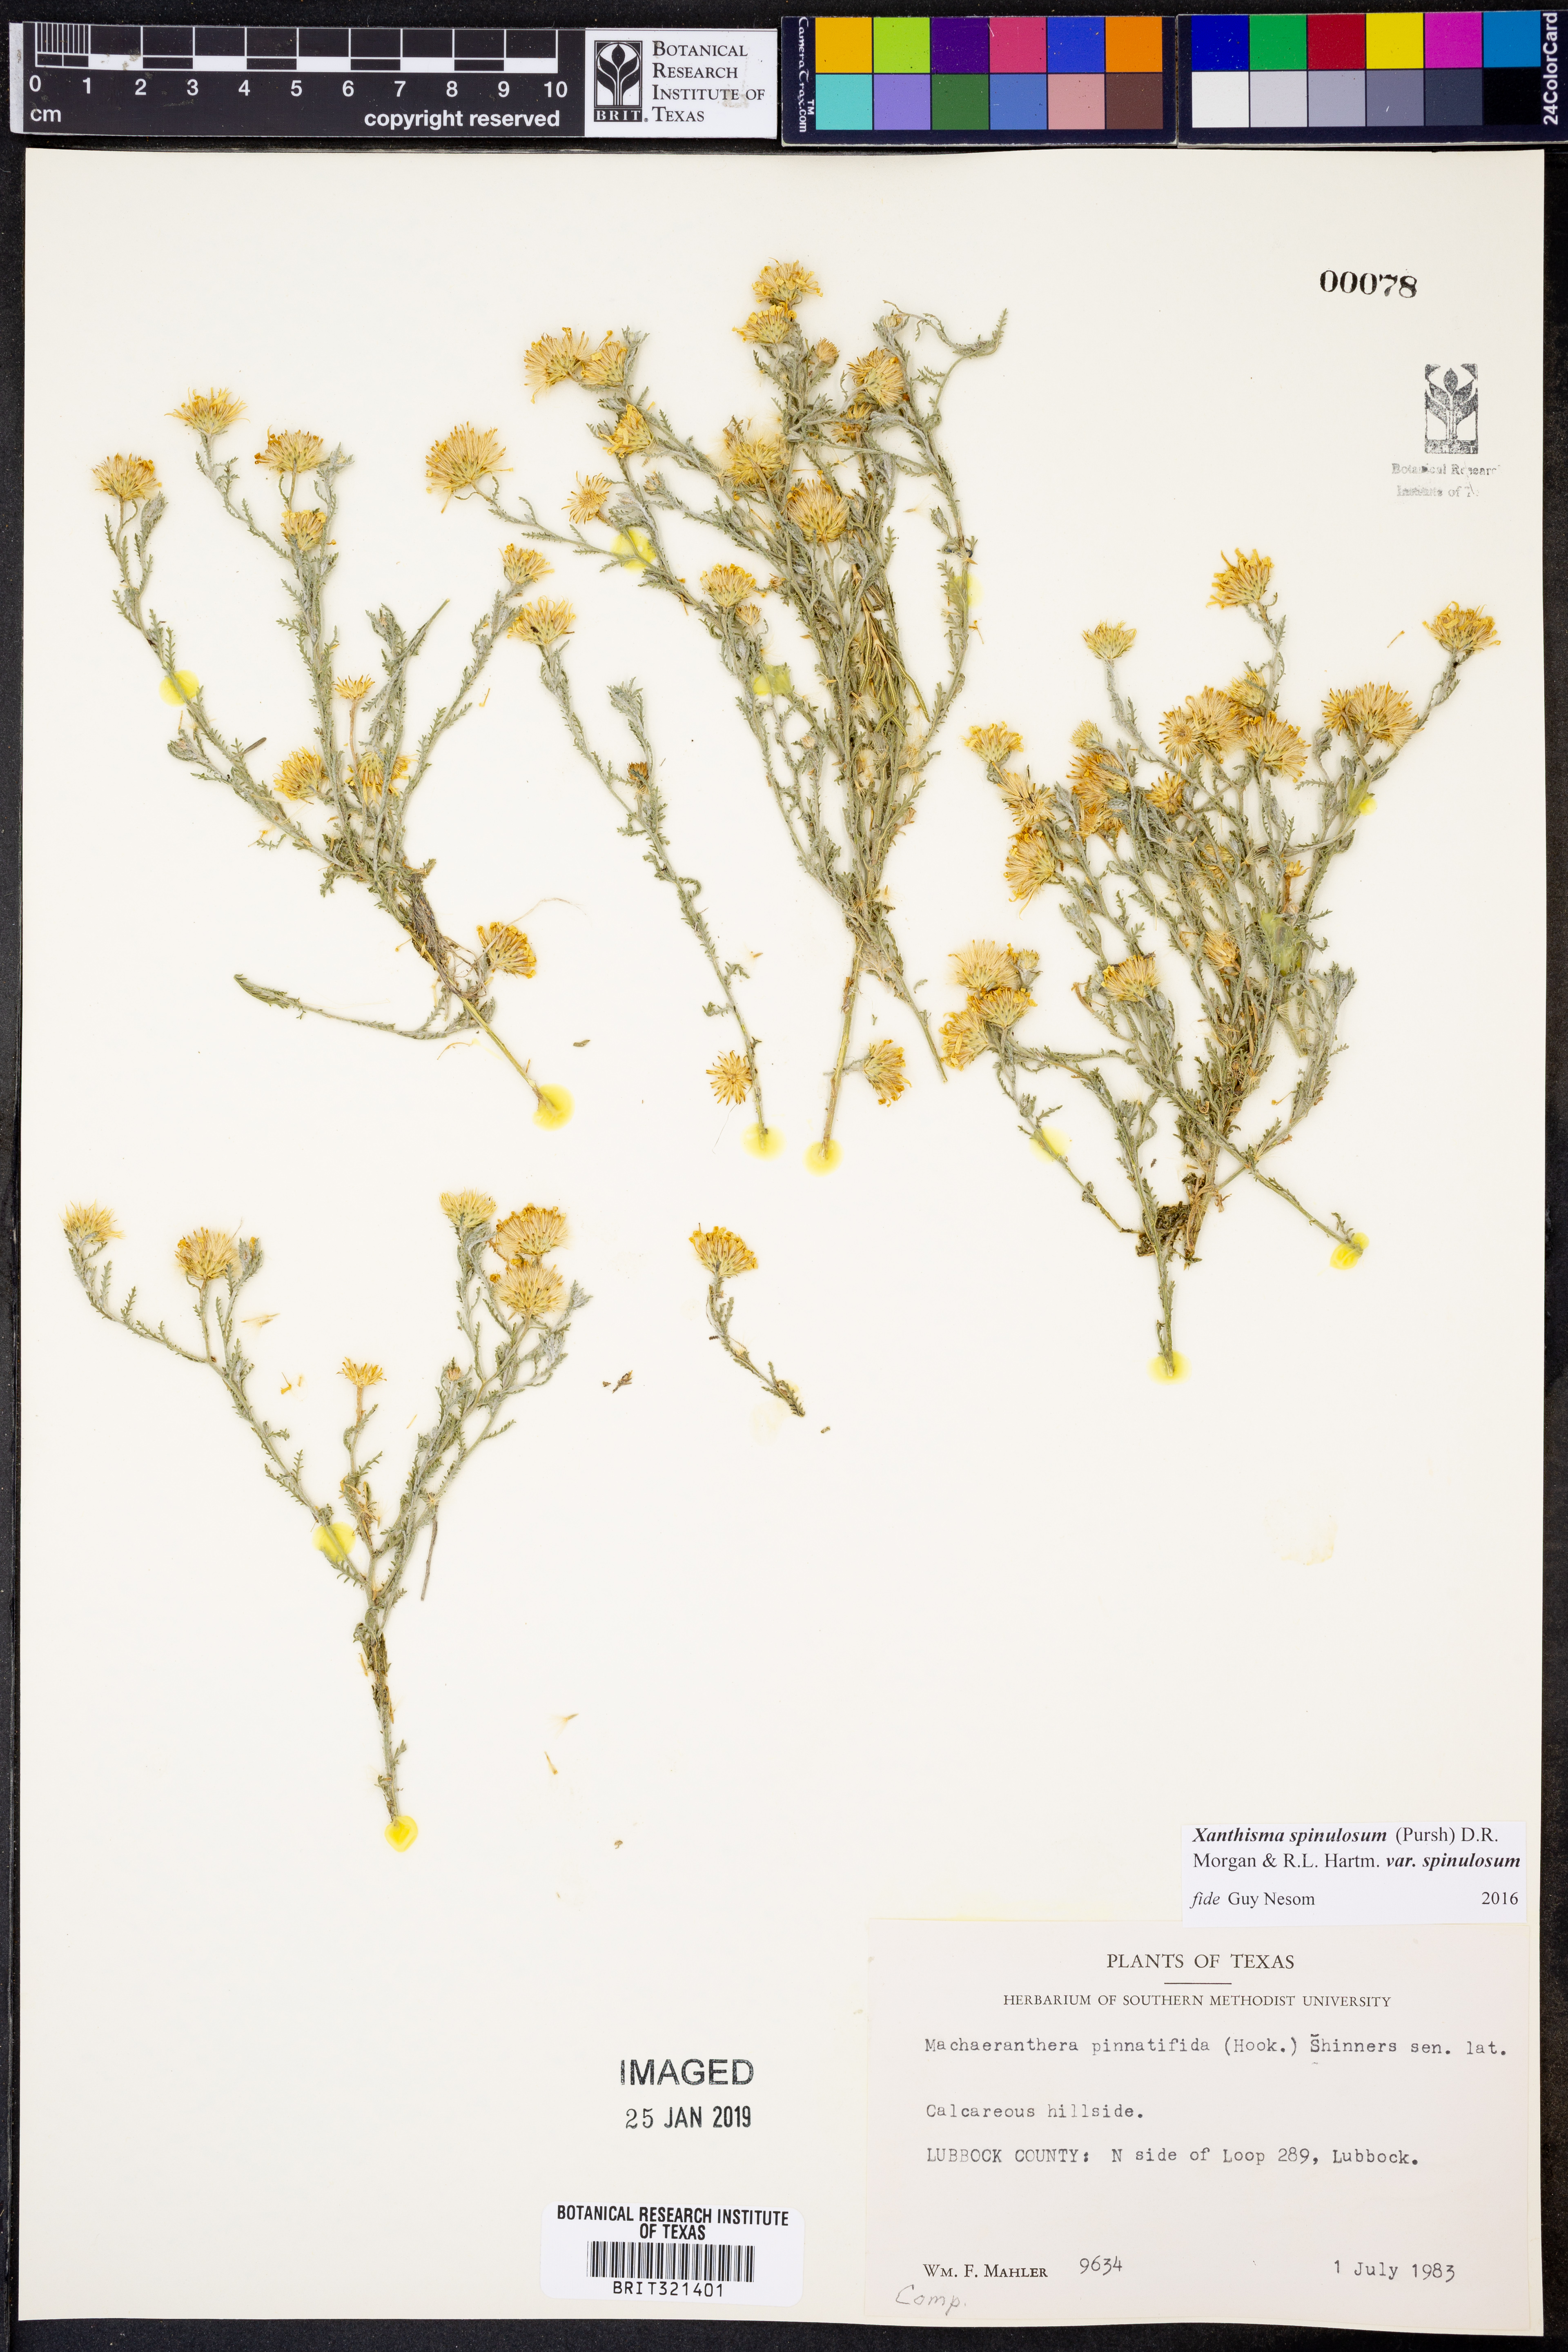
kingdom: Plantae
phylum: Tracheophyta
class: Magnoliopsida
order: Asterales
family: Asteraceae
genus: Xanthisma
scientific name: Xanthisma spinulosum
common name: Spiny goldenweed
